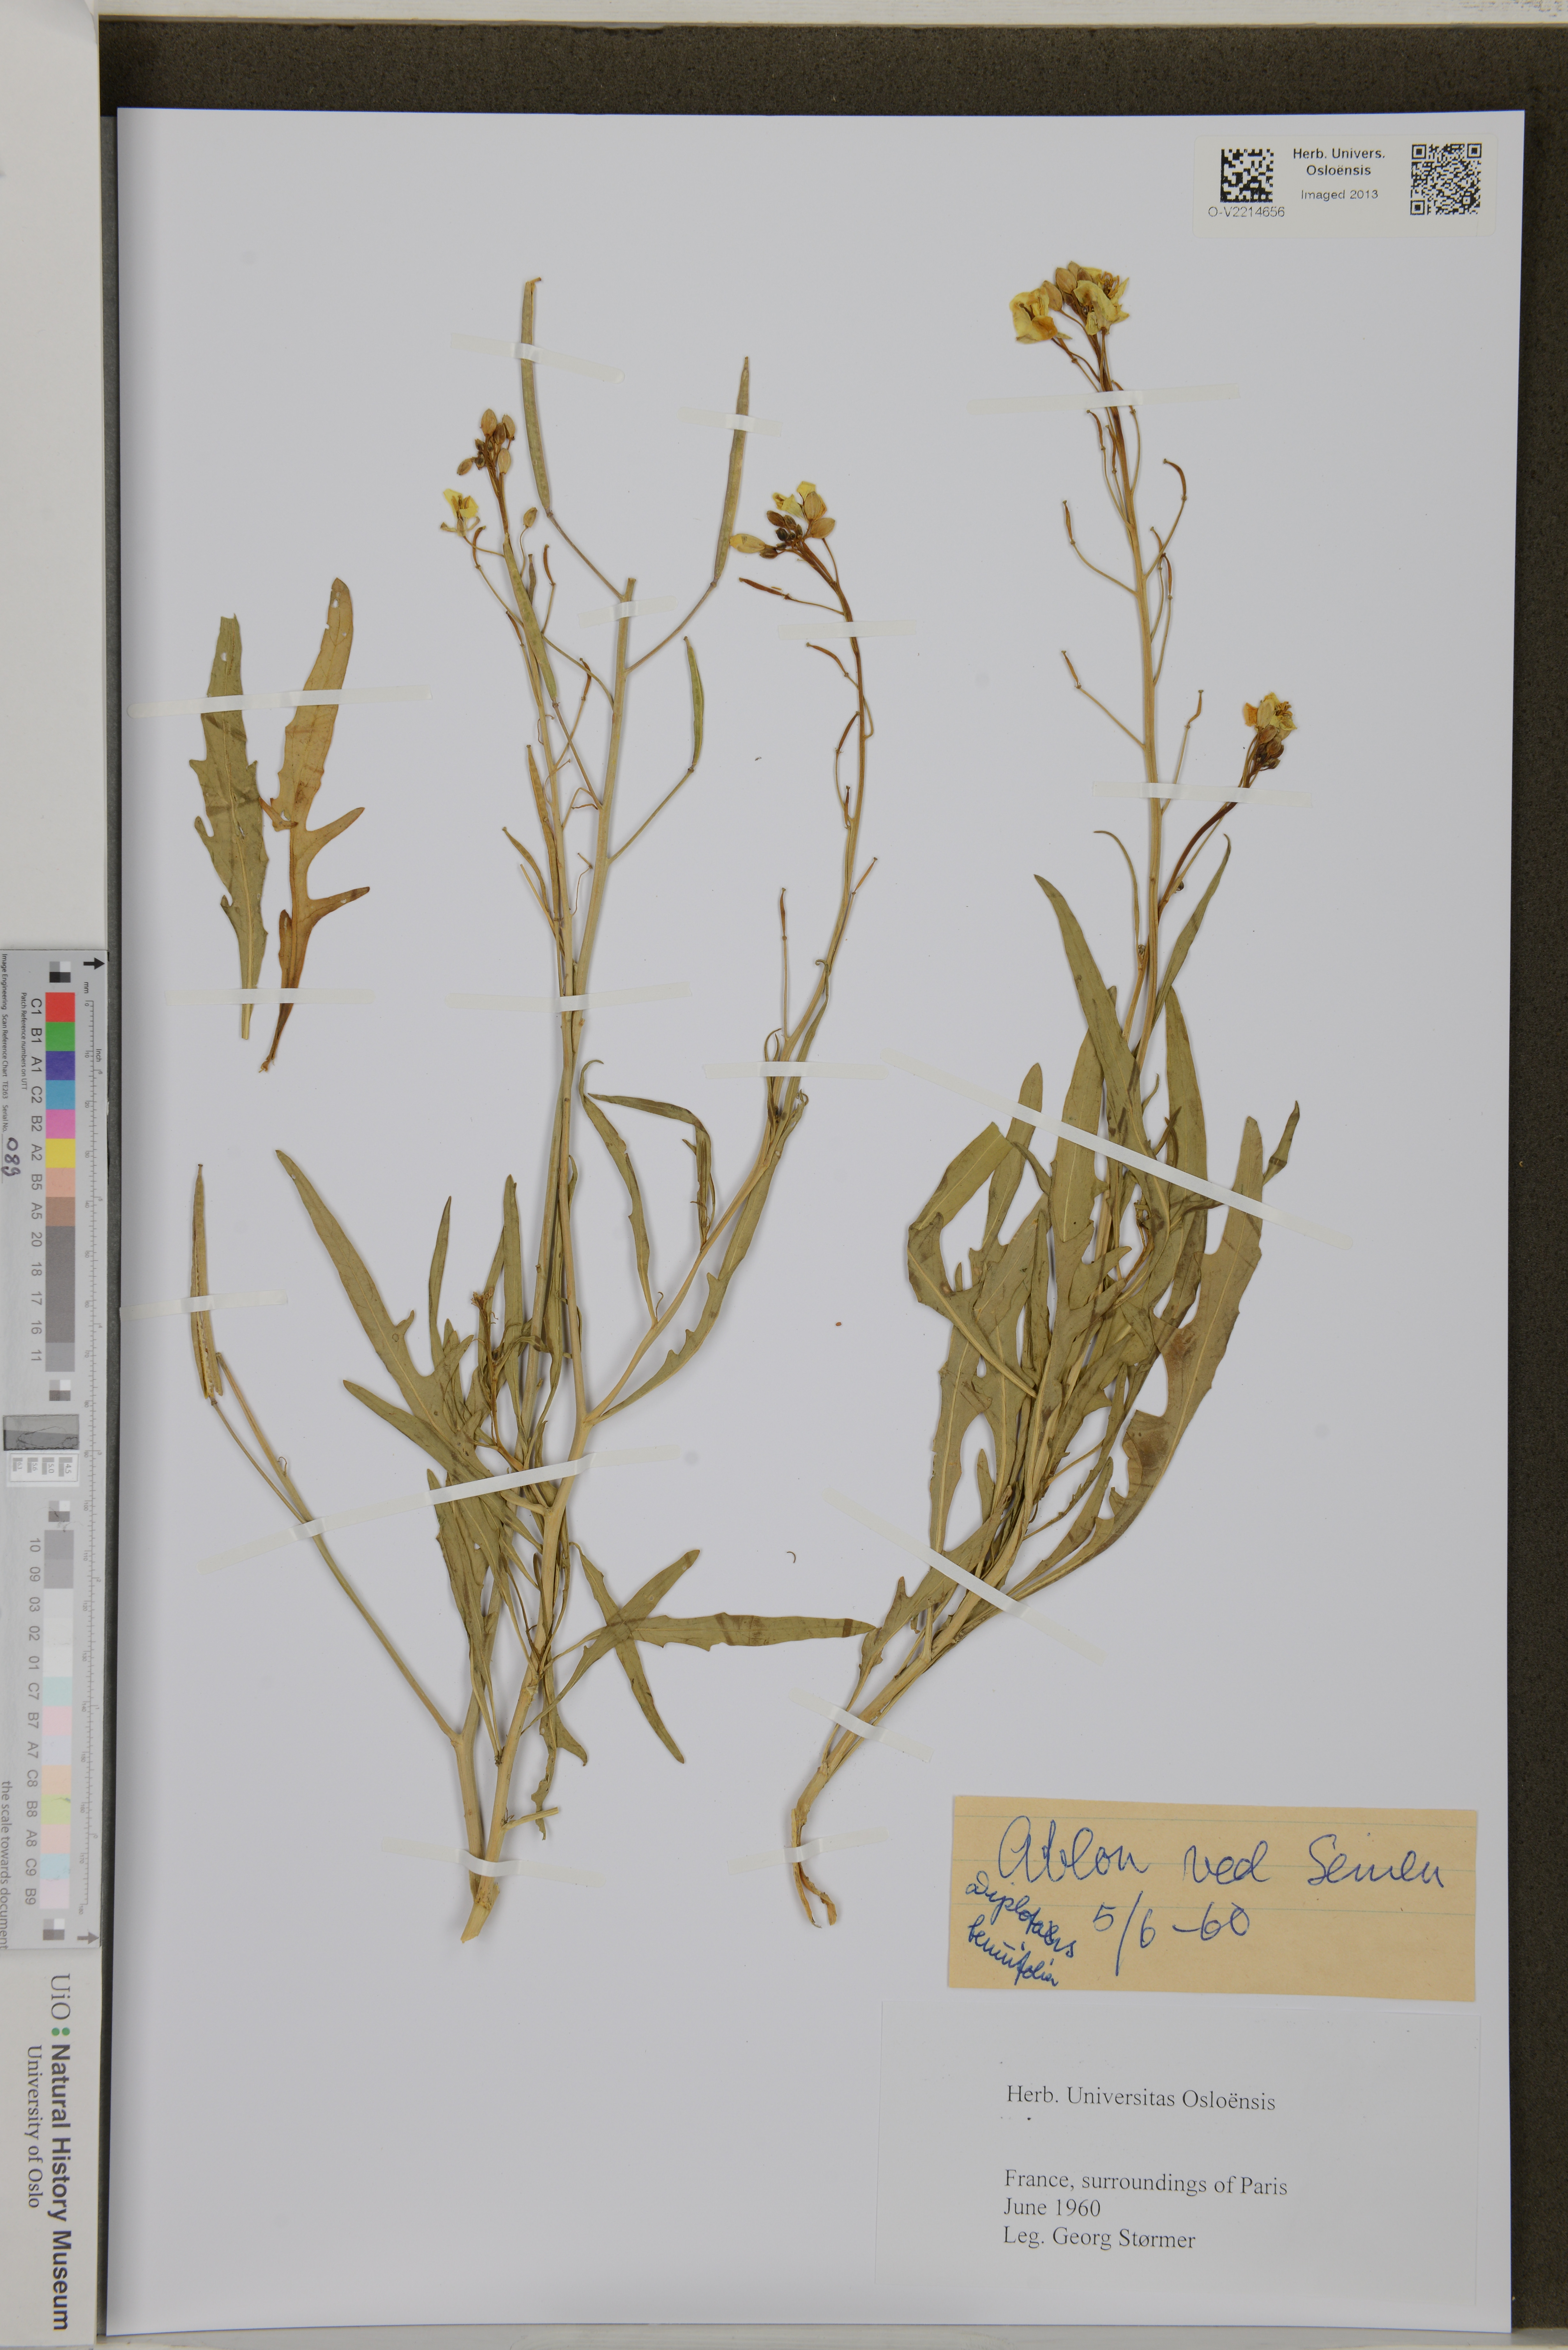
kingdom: Plantae
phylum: Tracheophyta
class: Magnoliopsida
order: Brassicales
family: Brassicaceae
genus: Diplotaxis
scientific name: Diplotaxis tenuifolia
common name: Perennial wall-rocket
